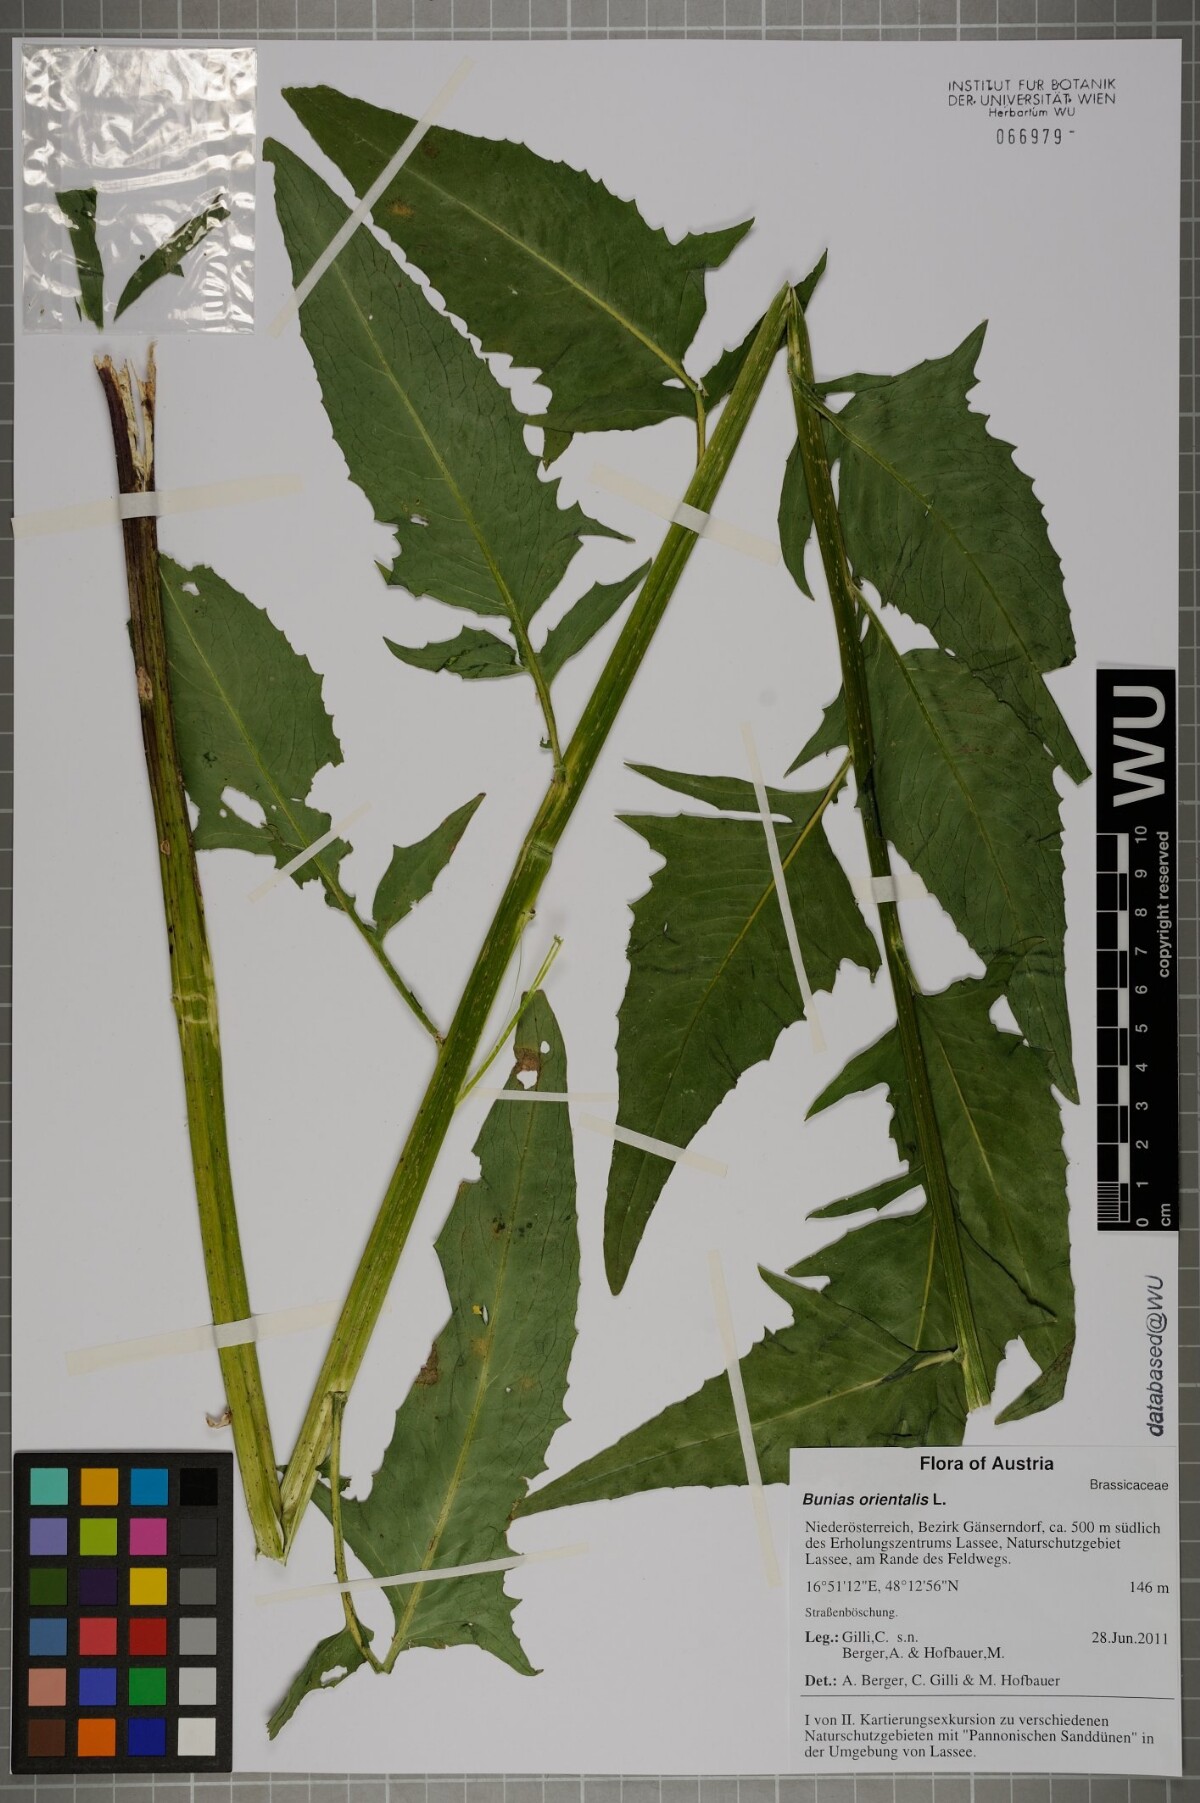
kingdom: Plantae
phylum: Tracheophyta
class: Magnoliopsida
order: Brassicales
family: Brassicaceae
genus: Bunias
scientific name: Bunias orientalis
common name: Warty-cabbage
